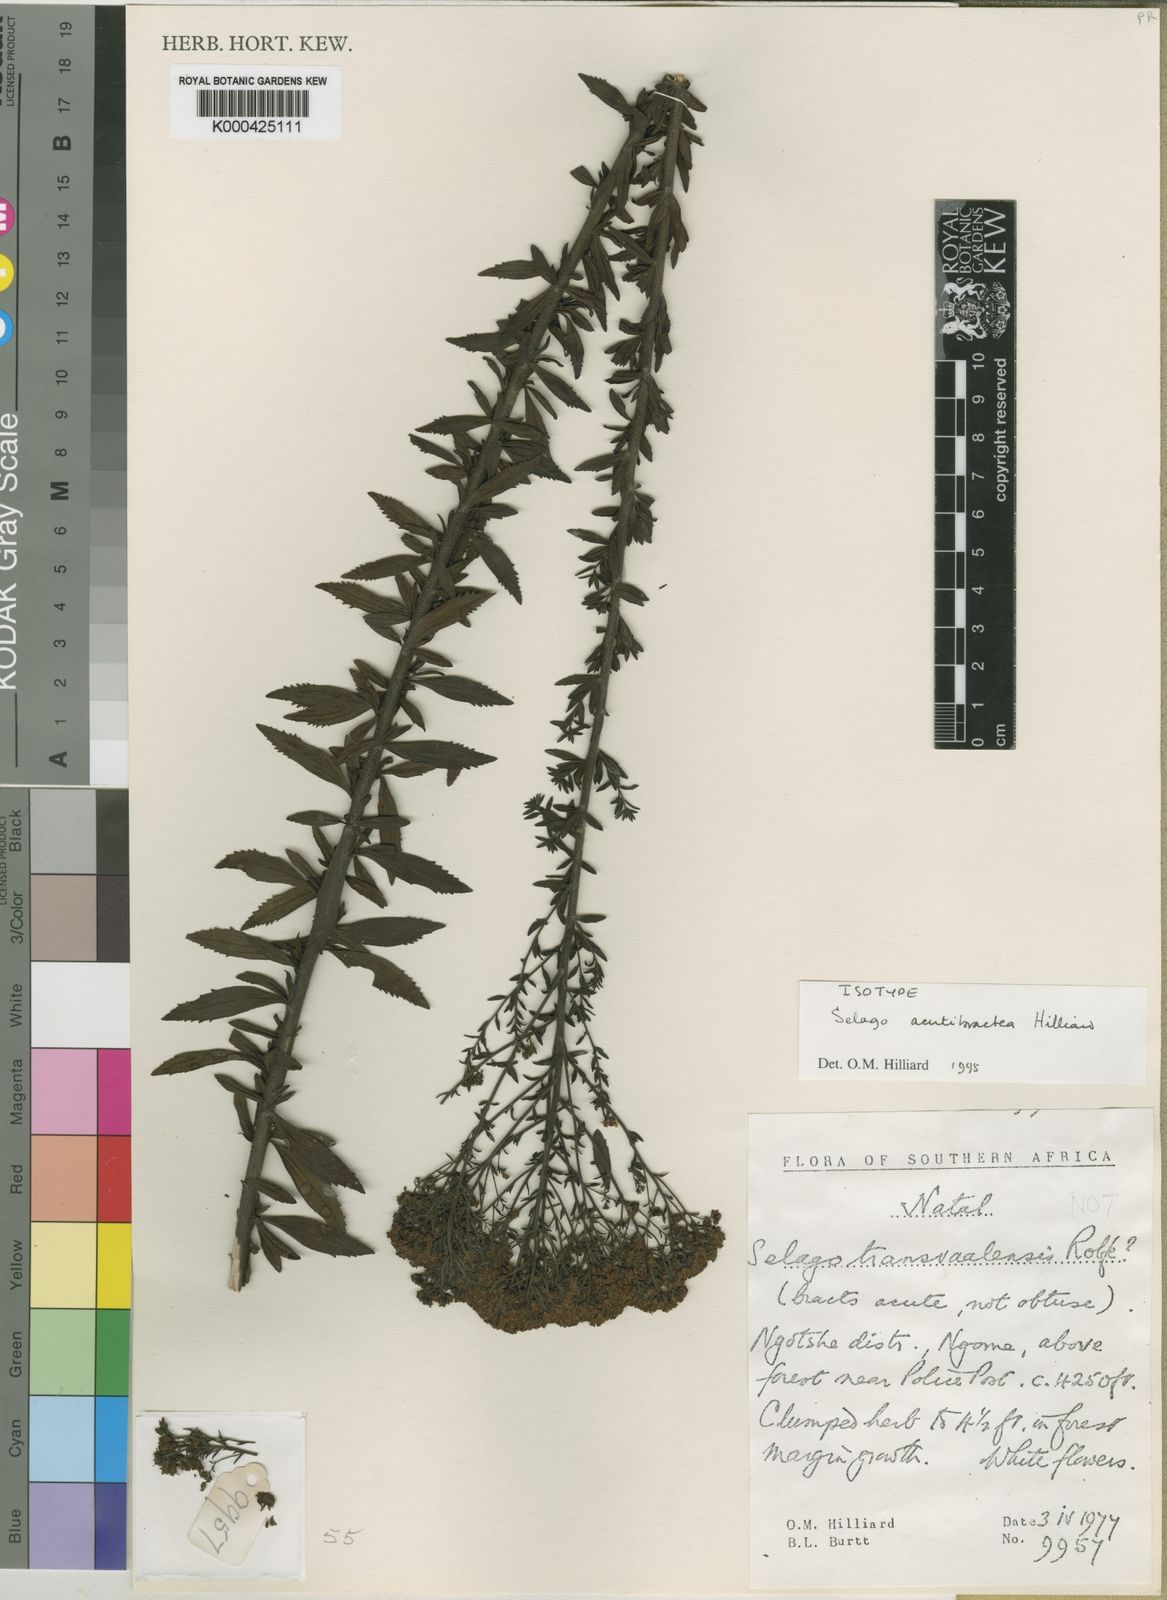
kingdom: Plantae
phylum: Tracheophyta
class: Magnoliopsida
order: Lamiales
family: Scrophulariaceae
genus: Selago
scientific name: Selago acutibractea
